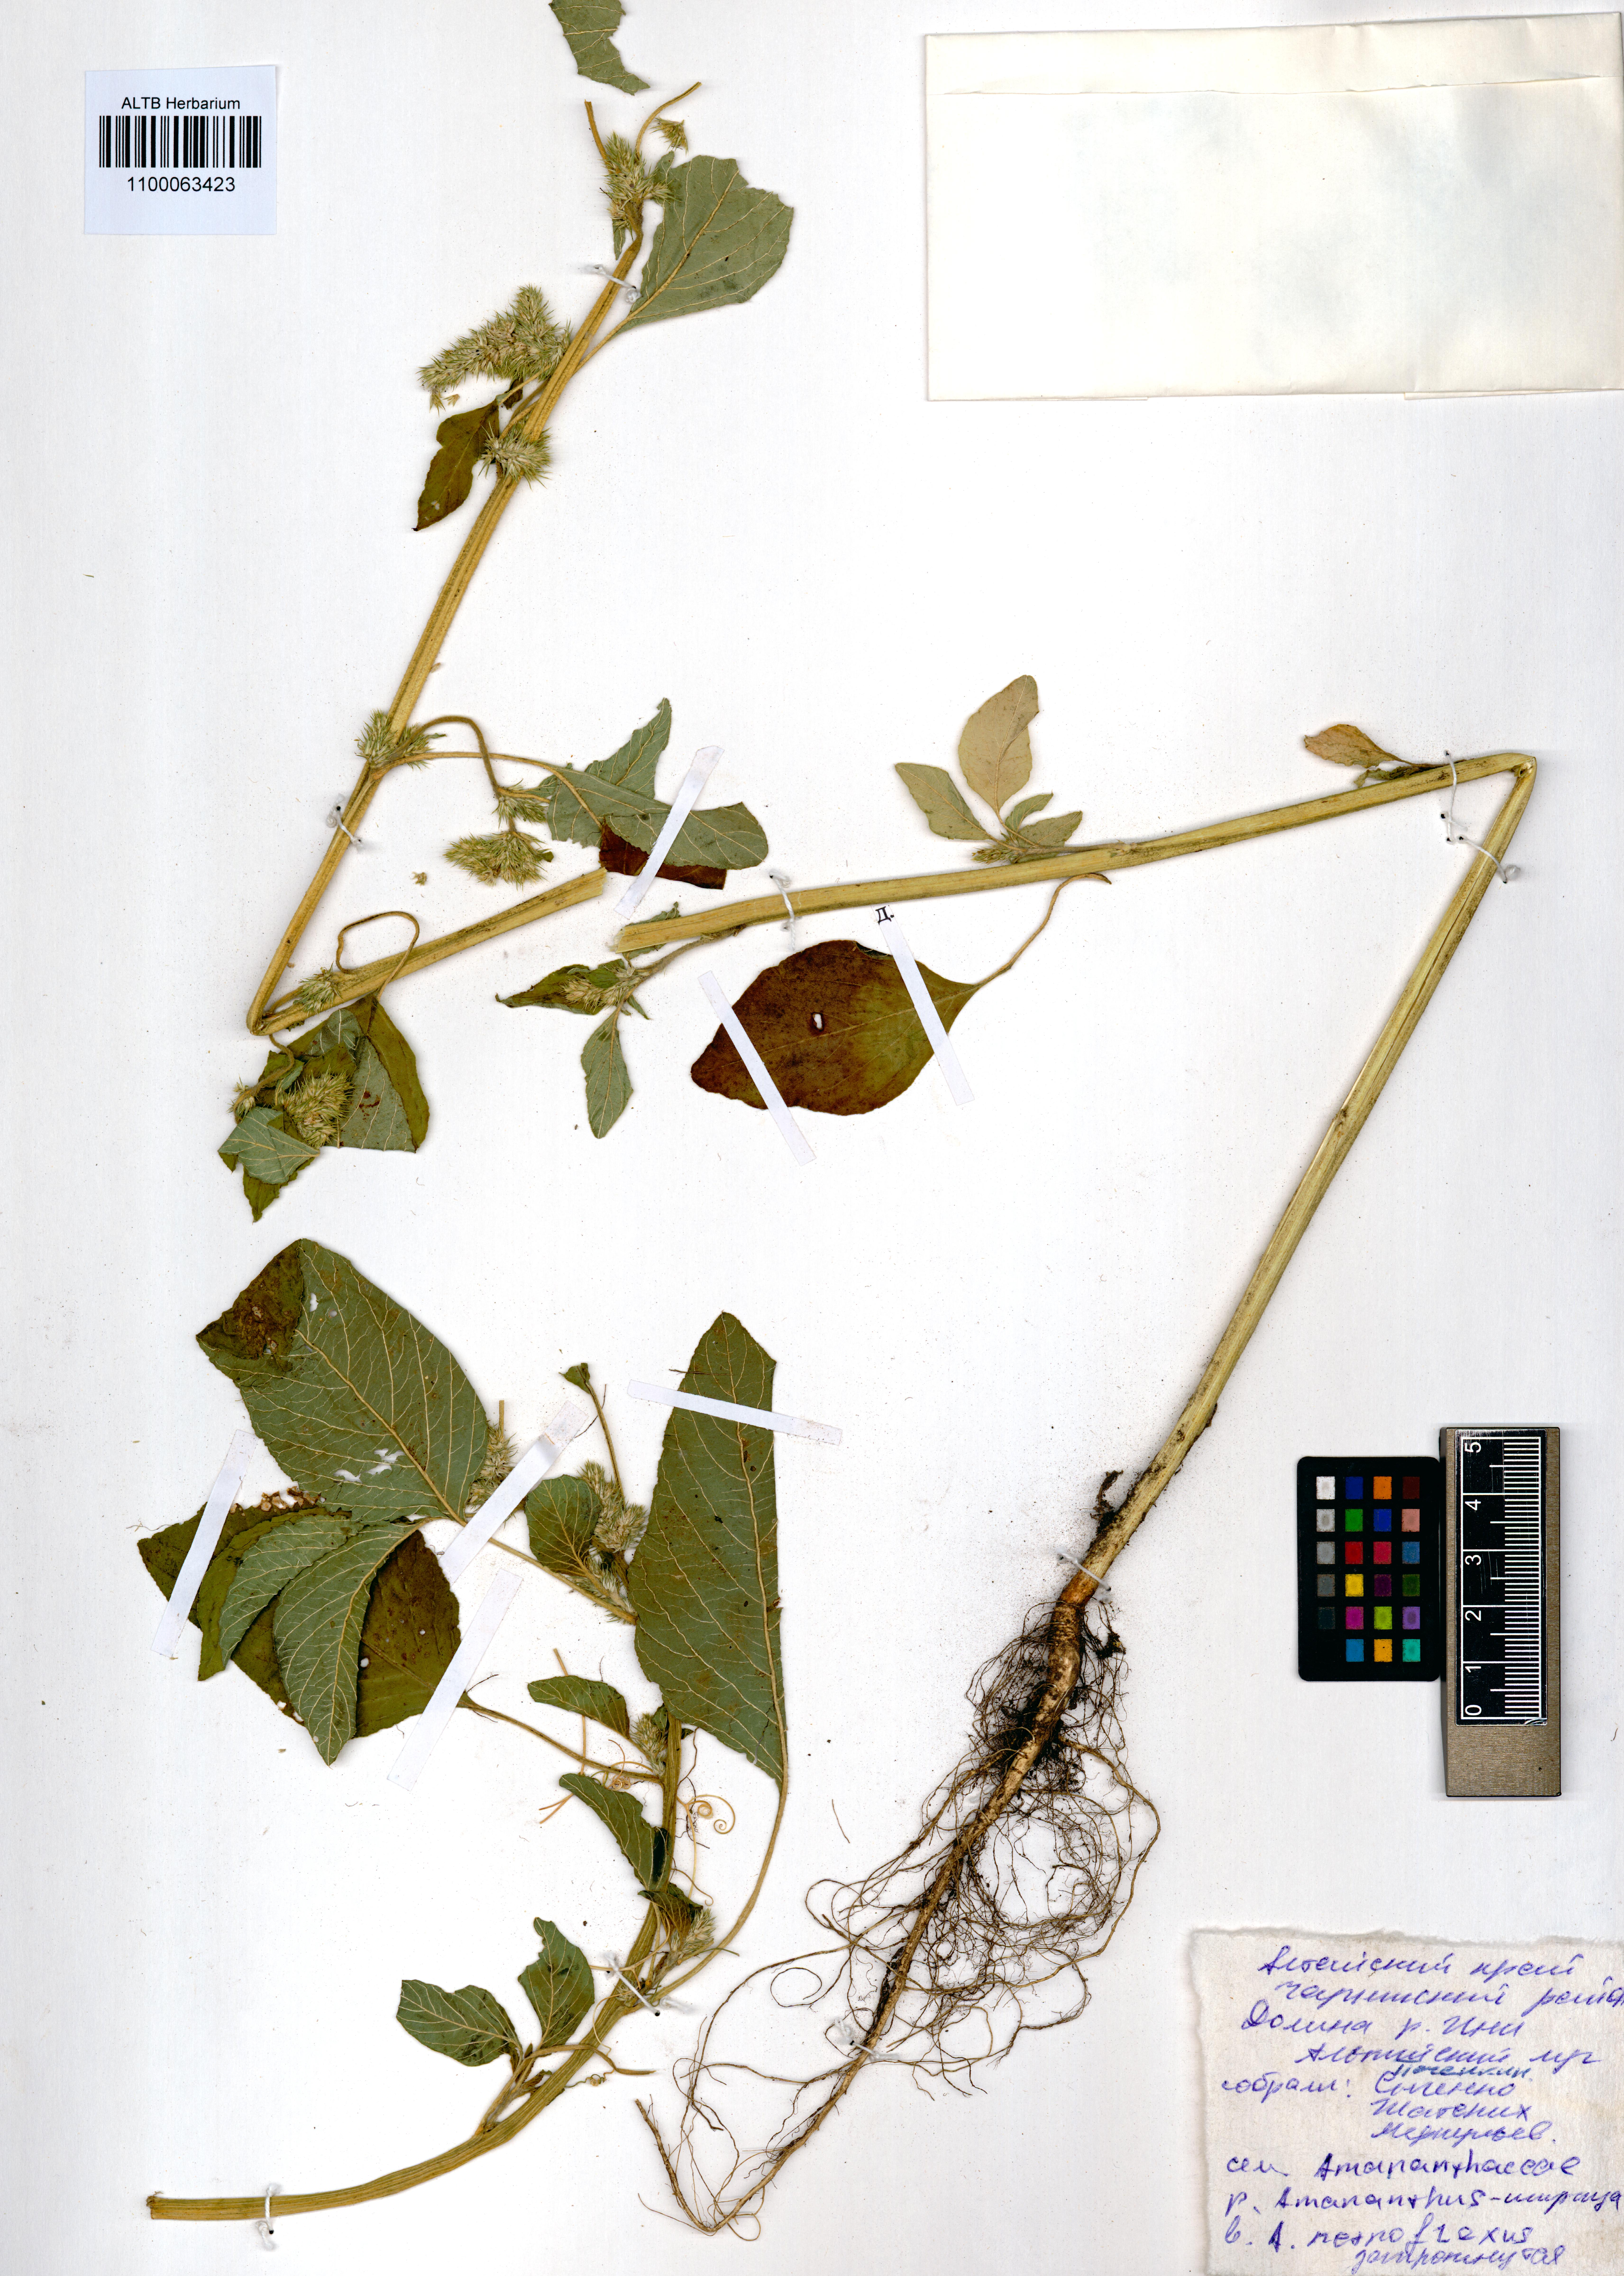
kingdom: Plantae
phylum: Tracheophyta
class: Magnoliopsida
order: Caryophyllales
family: Amaranthaceae
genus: Amaranthus
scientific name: Amaranthus retroflexus
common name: Redroot amaranth
